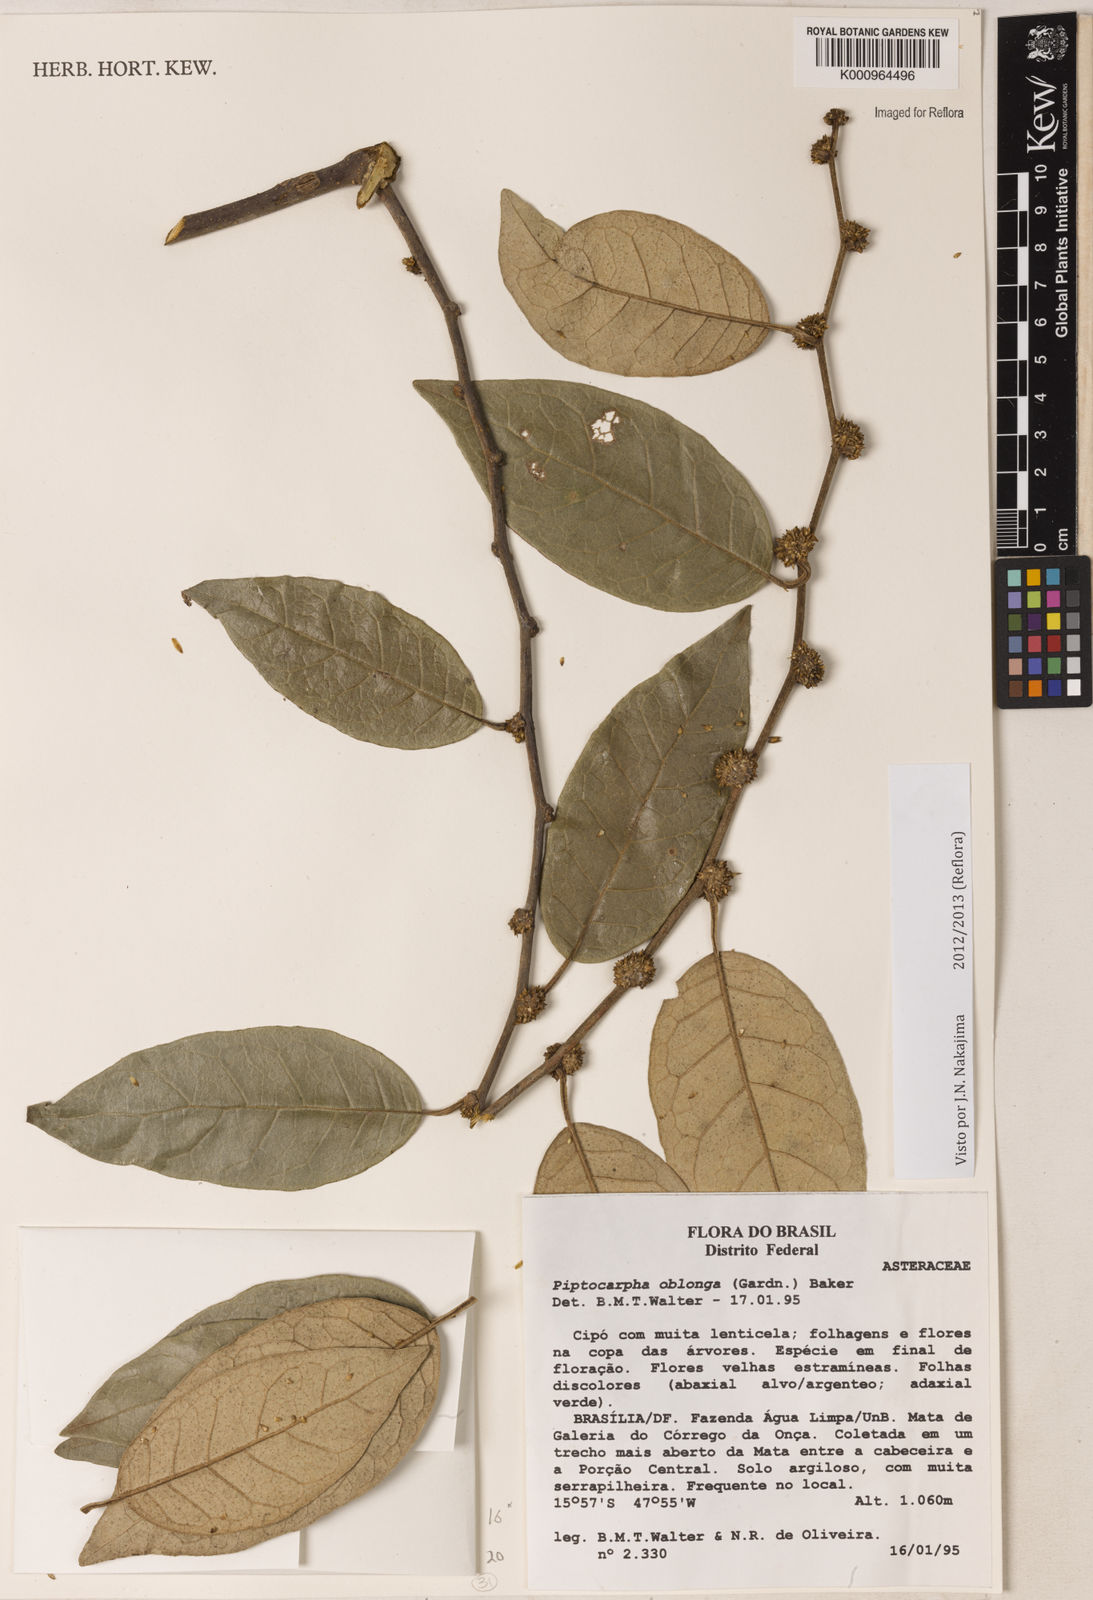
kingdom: Plantae
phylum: Tracheophyta
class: Magnoliopsida
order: Asterales
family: Asteraceae
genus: Piptocarpha
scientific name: Piptocarpha oblonga
